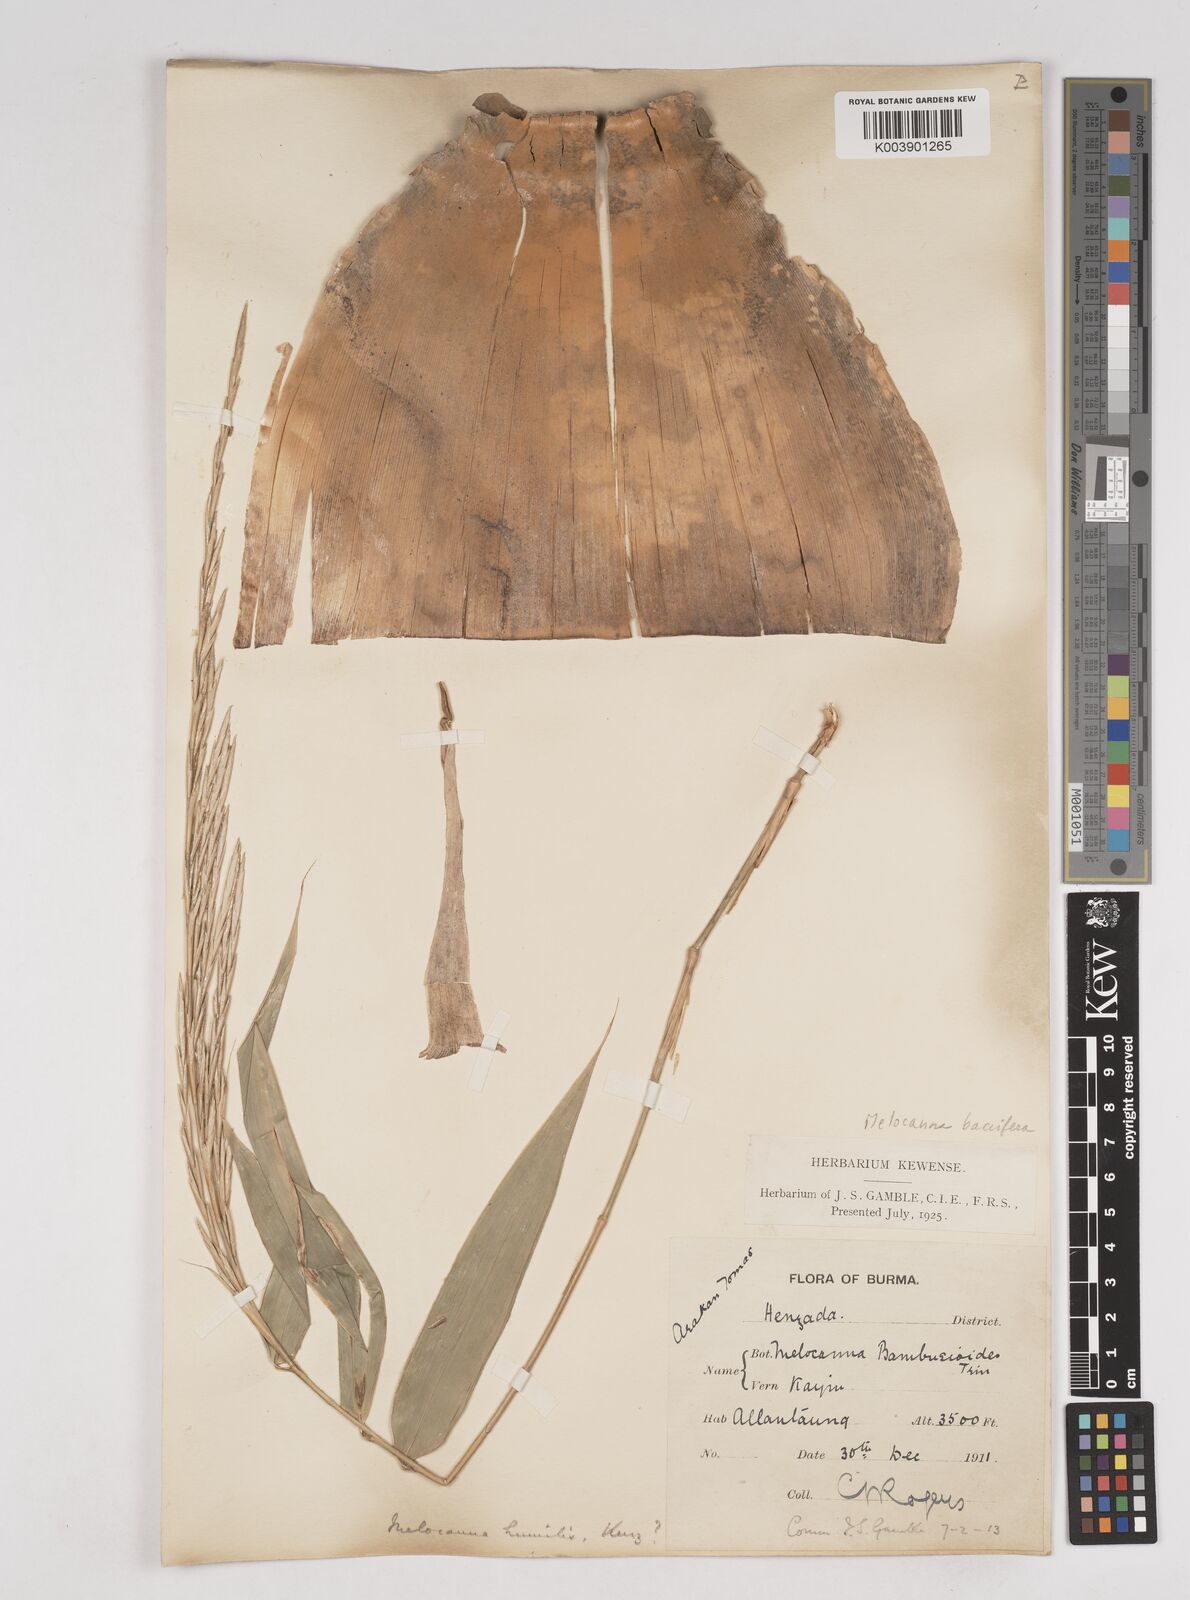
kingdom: Plantae
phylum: Tracheophyta
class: Liliopsida
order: Poales
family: Poaceae
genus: Melocanna
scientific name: Melocanna baccifera
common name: Berry bamboo
